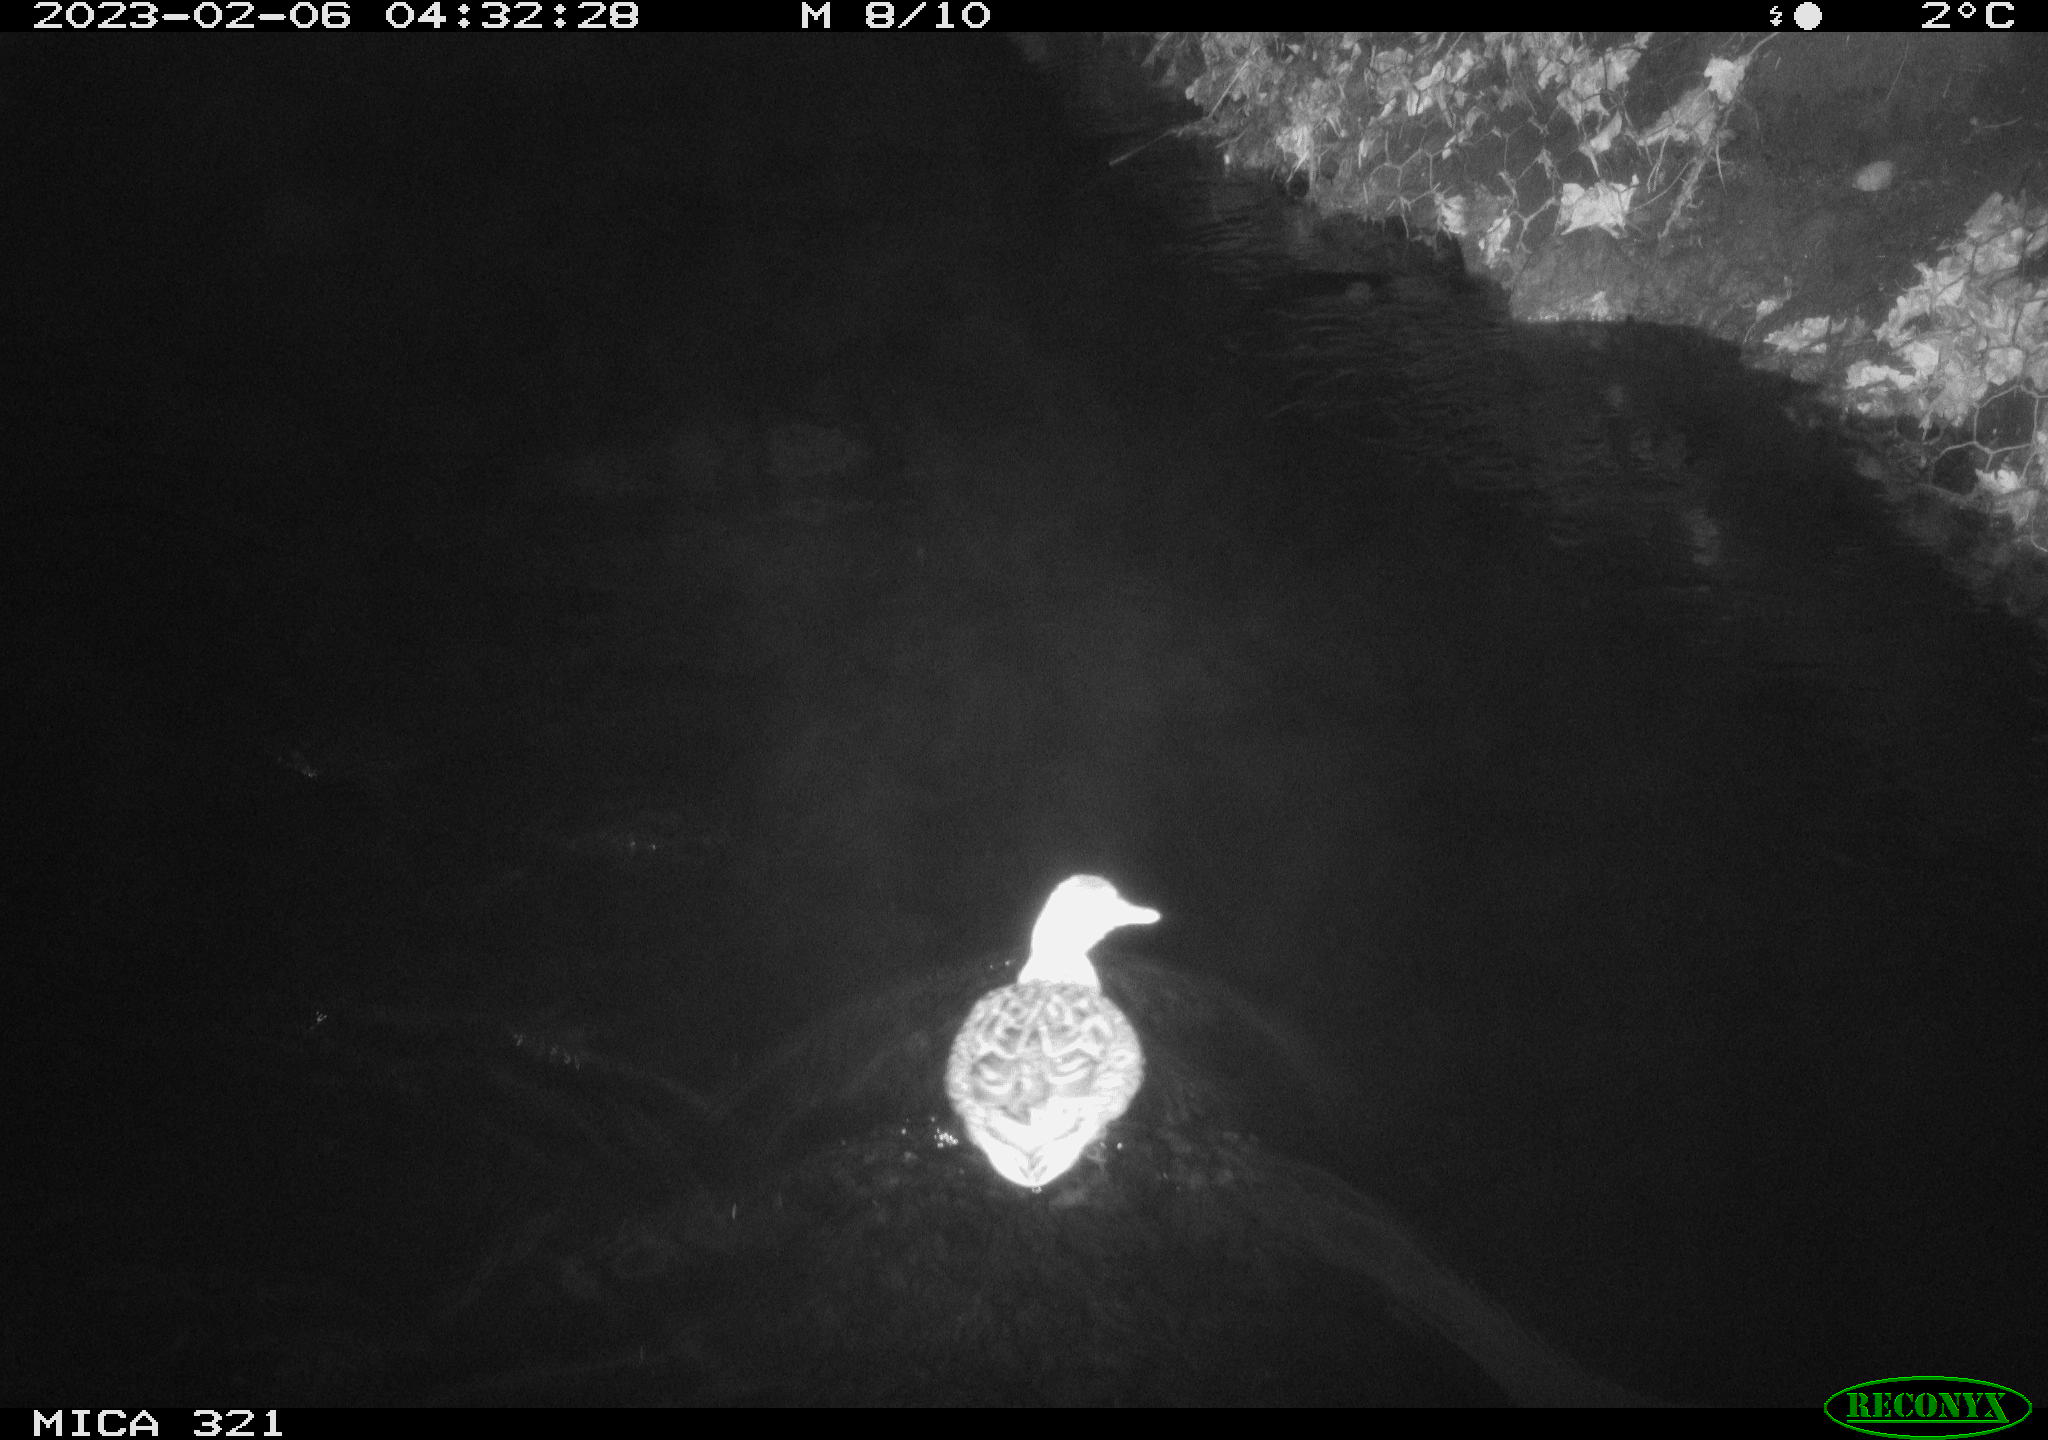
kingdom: Animalia
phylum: Chordata
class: Aves
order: Anseriformes
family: Anatidae
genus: Anas
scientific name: Anas
